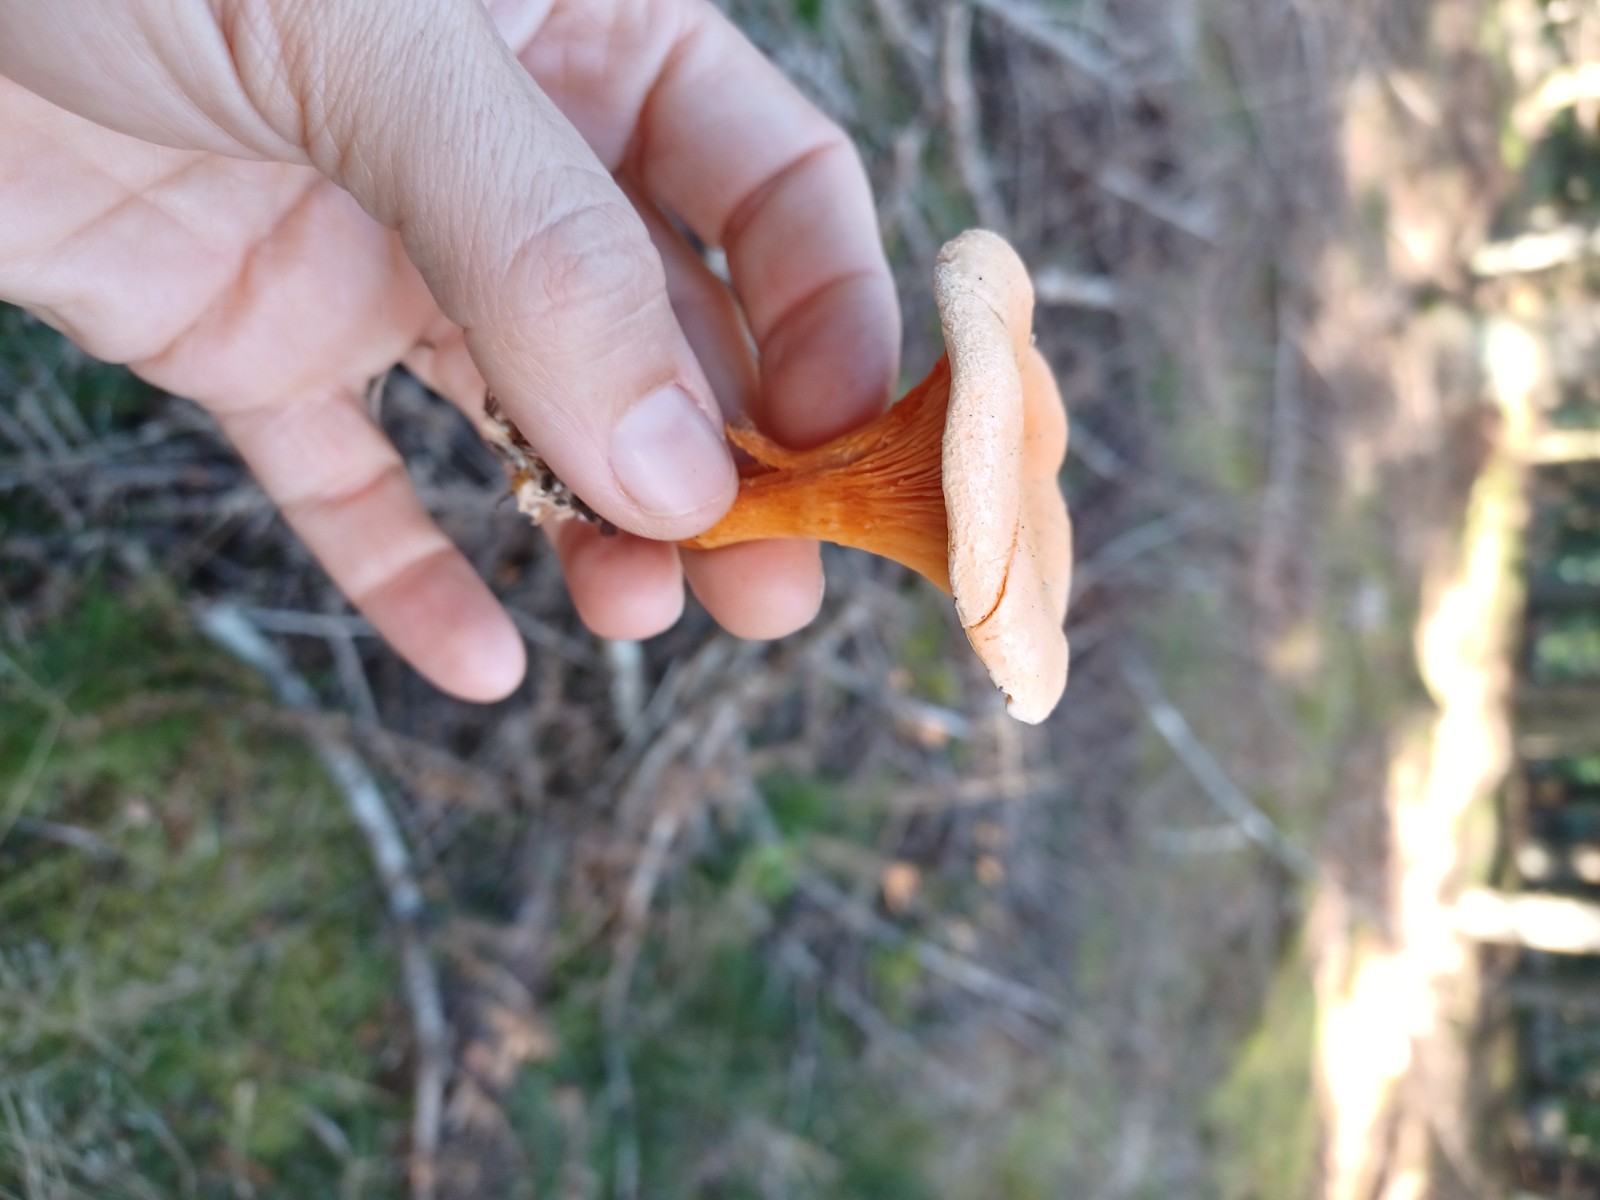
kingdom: Fungi
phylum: Basidiomycota
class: Agaricomycetes
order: Boletales
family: Hygrophoropsidaceae
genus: Hygrophoropsis
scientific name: Hygrophoropsis aurantiaca
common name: almindelig orangekantarel
